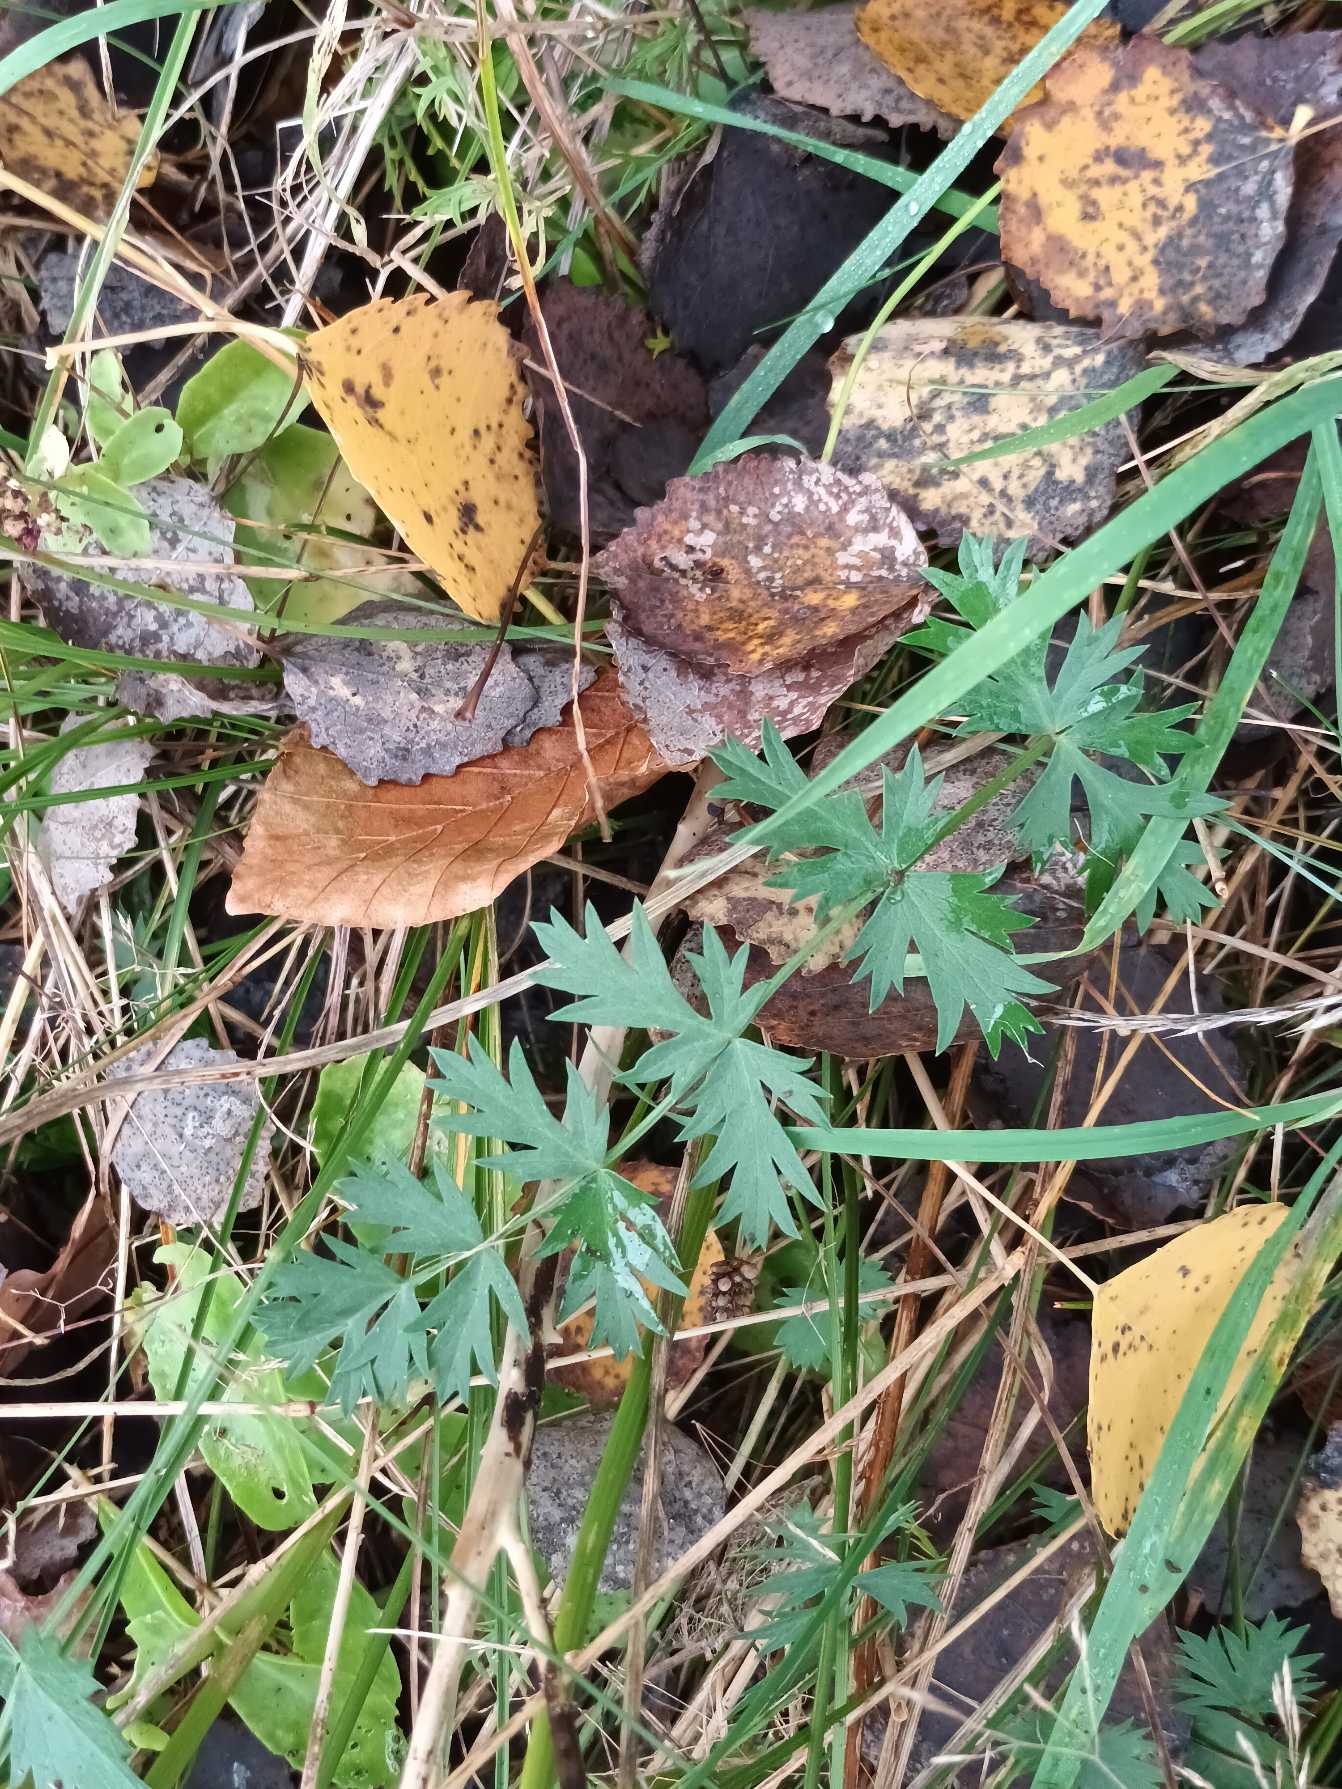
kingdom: Plantae
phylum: Tracheophyta
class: Magnoliopsida
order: Apiales
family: Apiaceae
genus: Pimpinella
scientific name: Pimpinella saxifraga
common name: Almindelig pimpinelle
